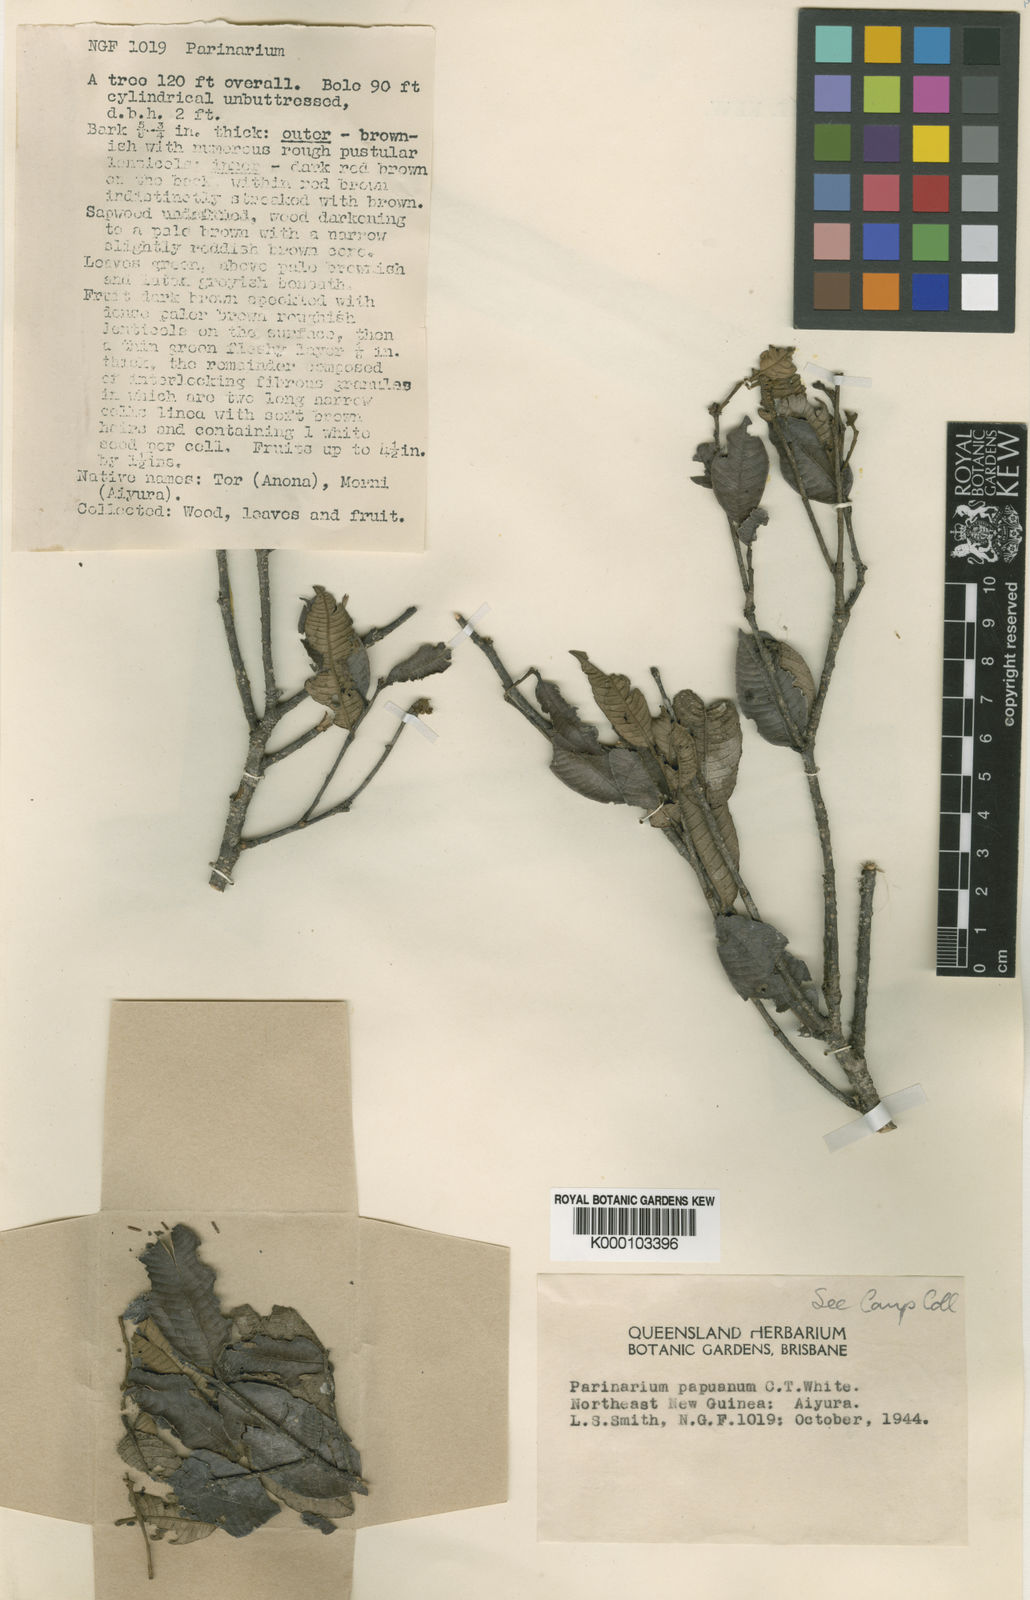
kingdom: Plantae
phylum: Tracheophyta
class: Magnoliopsida
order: Malpighiales
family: Chrysobalanaceae
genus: Parinari
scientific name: Parinari papuana
